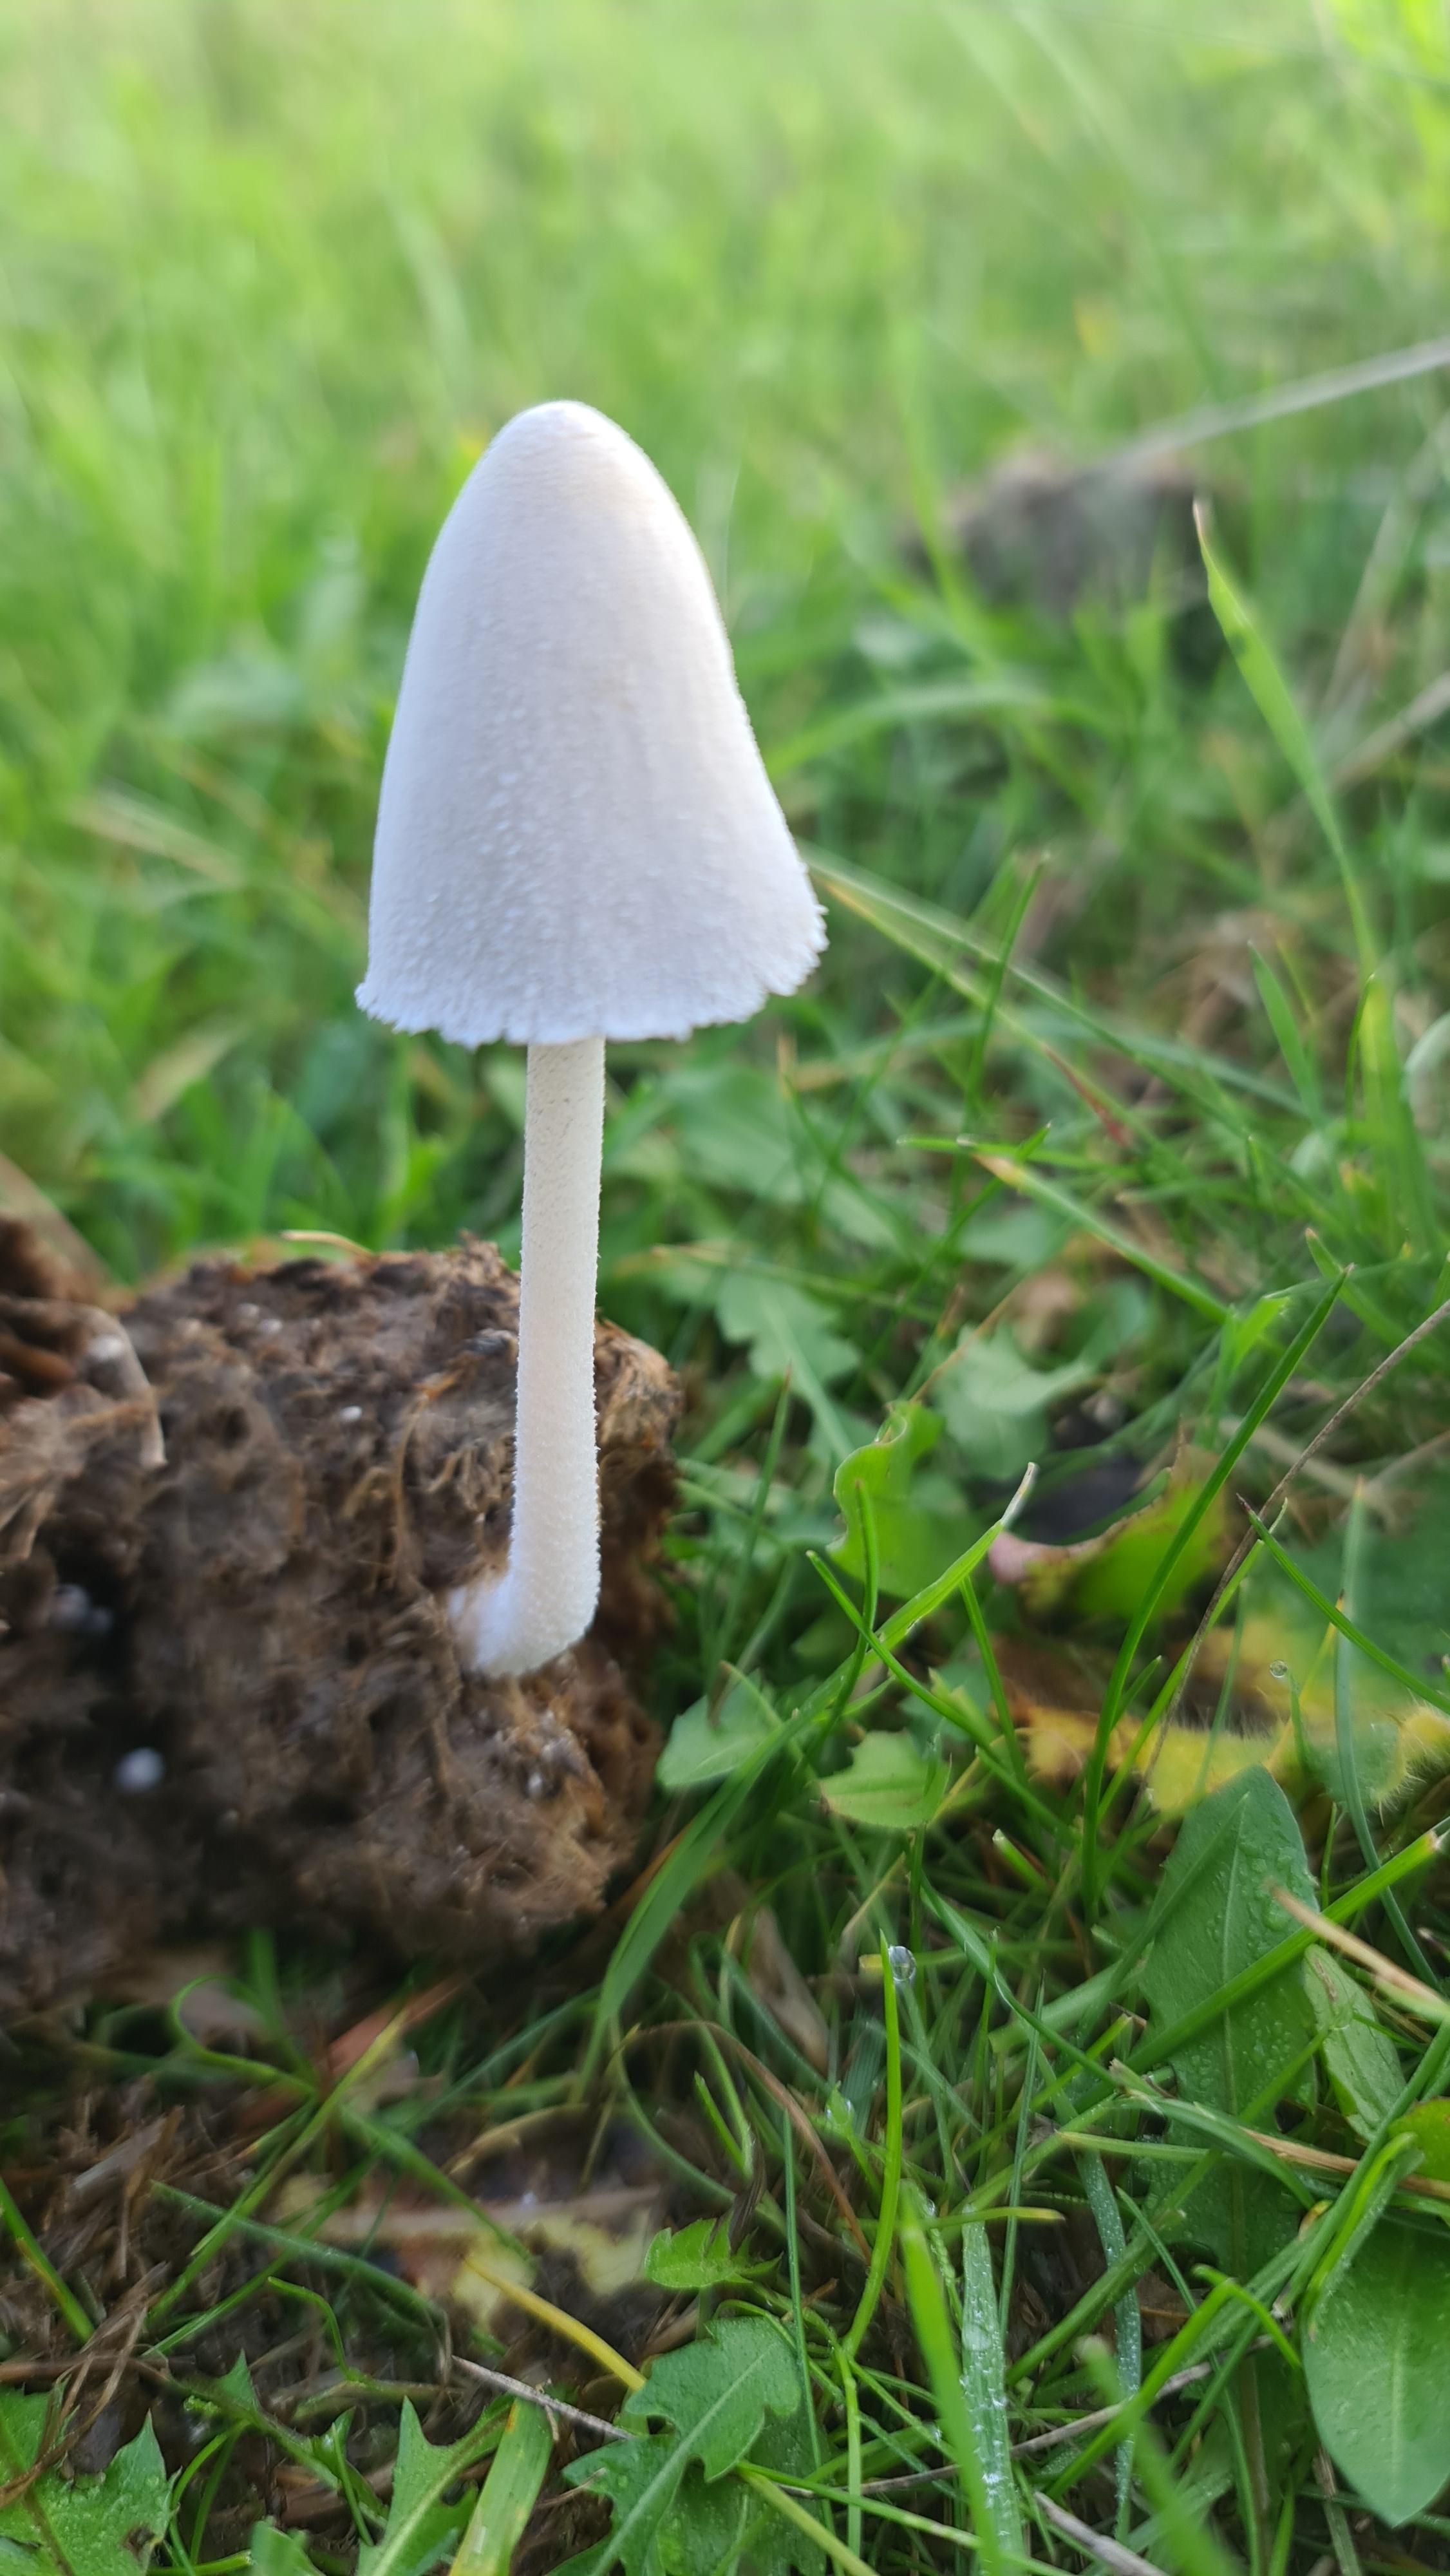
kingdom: Fungi
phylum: Basidiomycota
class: Agaricomycetes
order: Agaricales
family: Psathyrellaceae
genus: Coprinopsis
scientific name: Coprinopsis nivea
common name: snehvid blækhat
